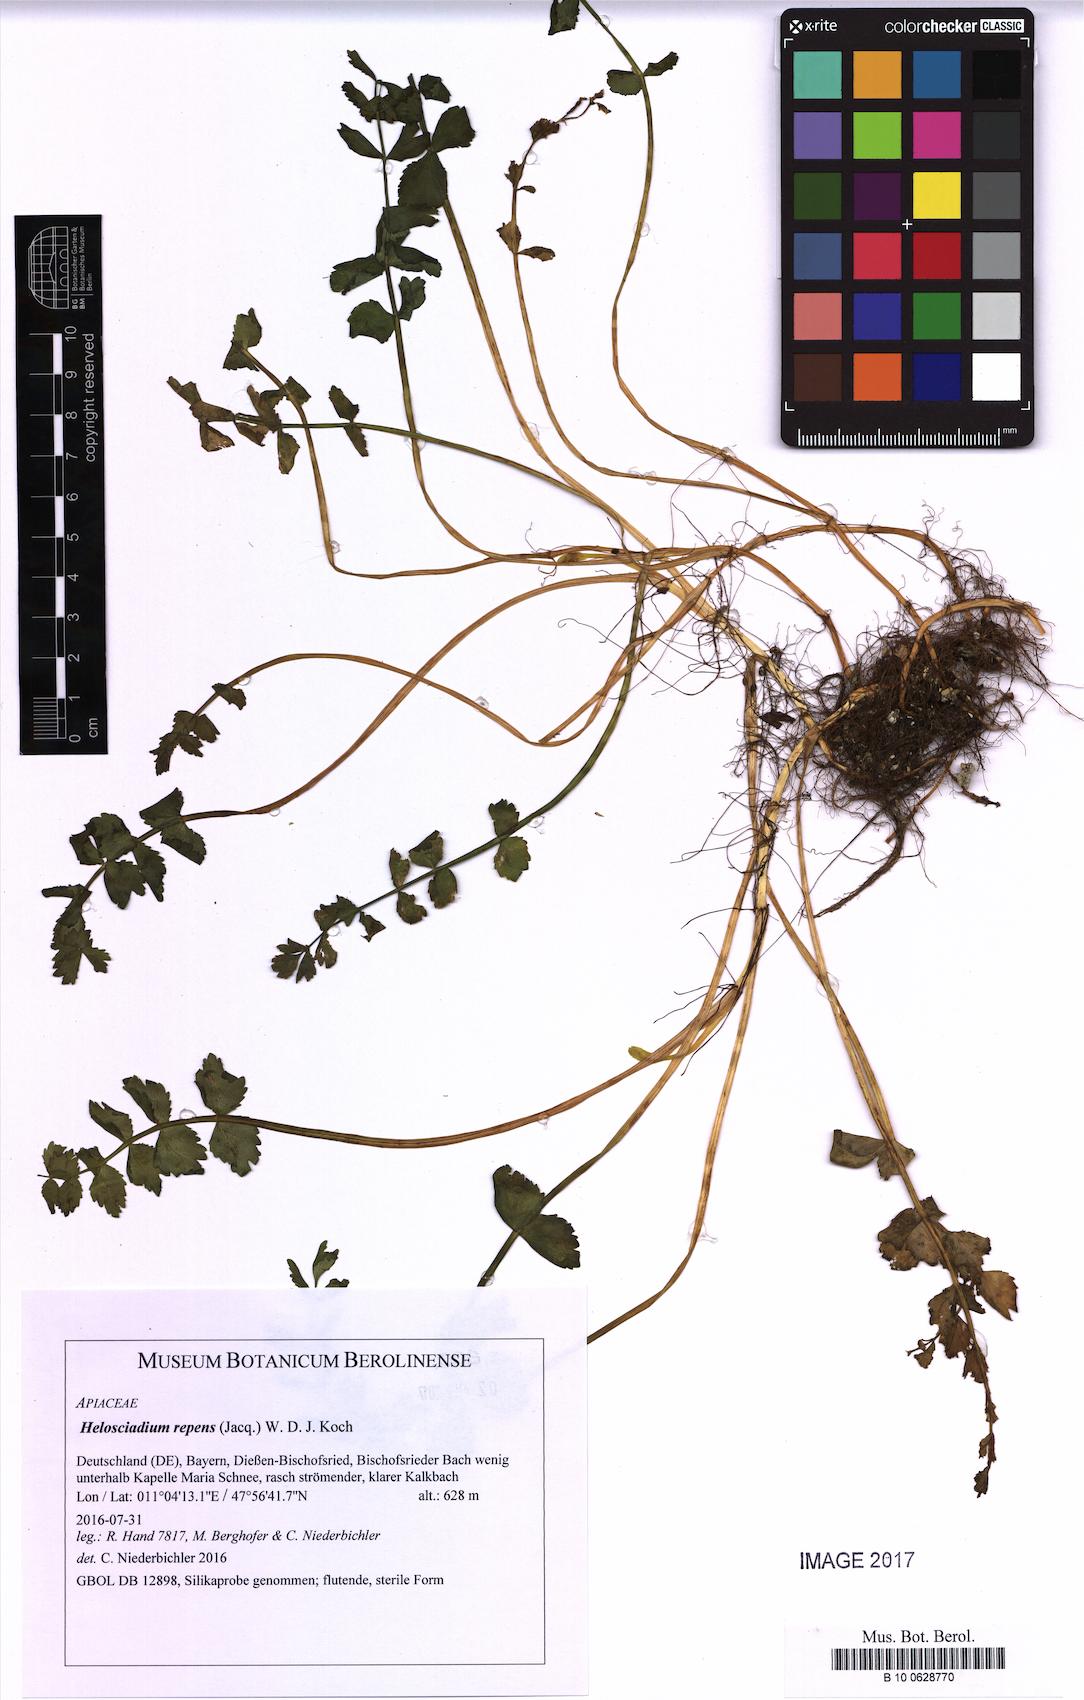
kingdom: Plantae
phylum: Tracheophyta
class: Magnoliopsida
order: Apiales
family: Apiaceae
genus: Helosciadium
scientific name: Helosciadium repens
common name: Creeping marshwort
